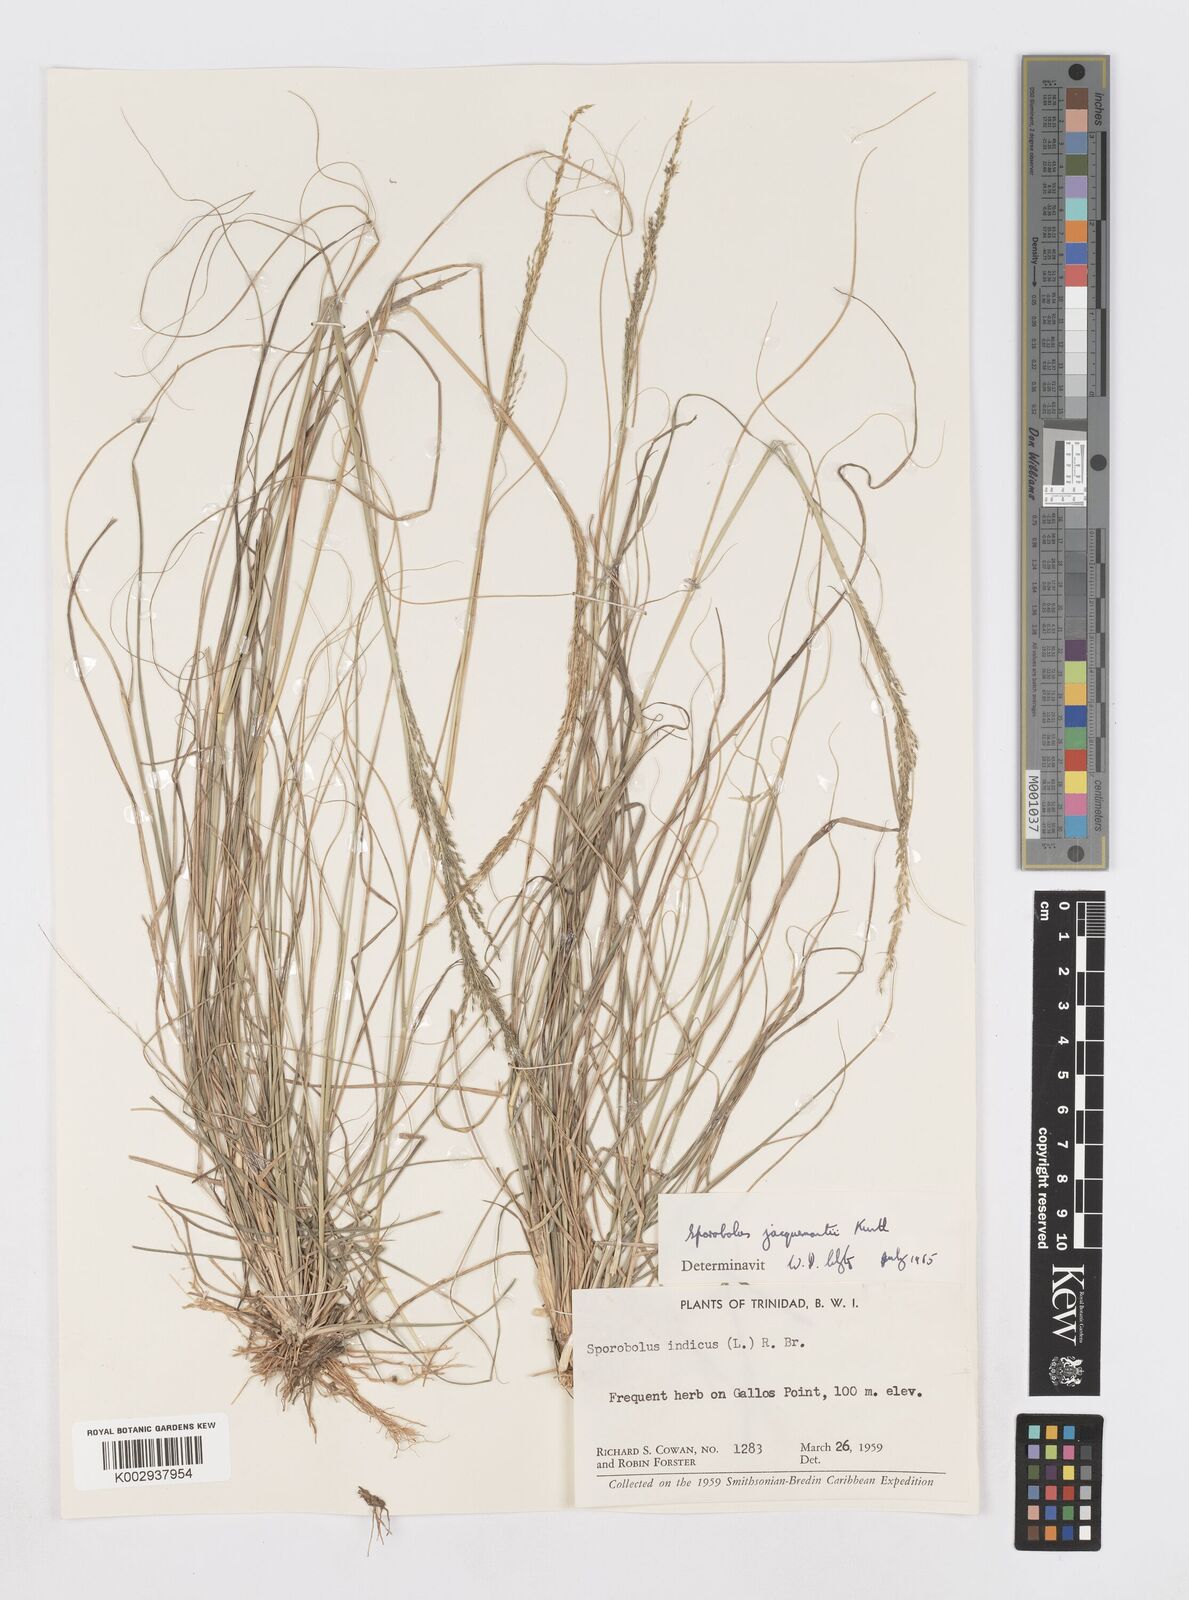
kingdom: Plantae
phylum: Tracheophyta
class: Liliopsida
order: Poales
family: Poaceae
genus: Sporobolus
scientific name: Sporobolus pyramidalis
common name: West indian dropseed
